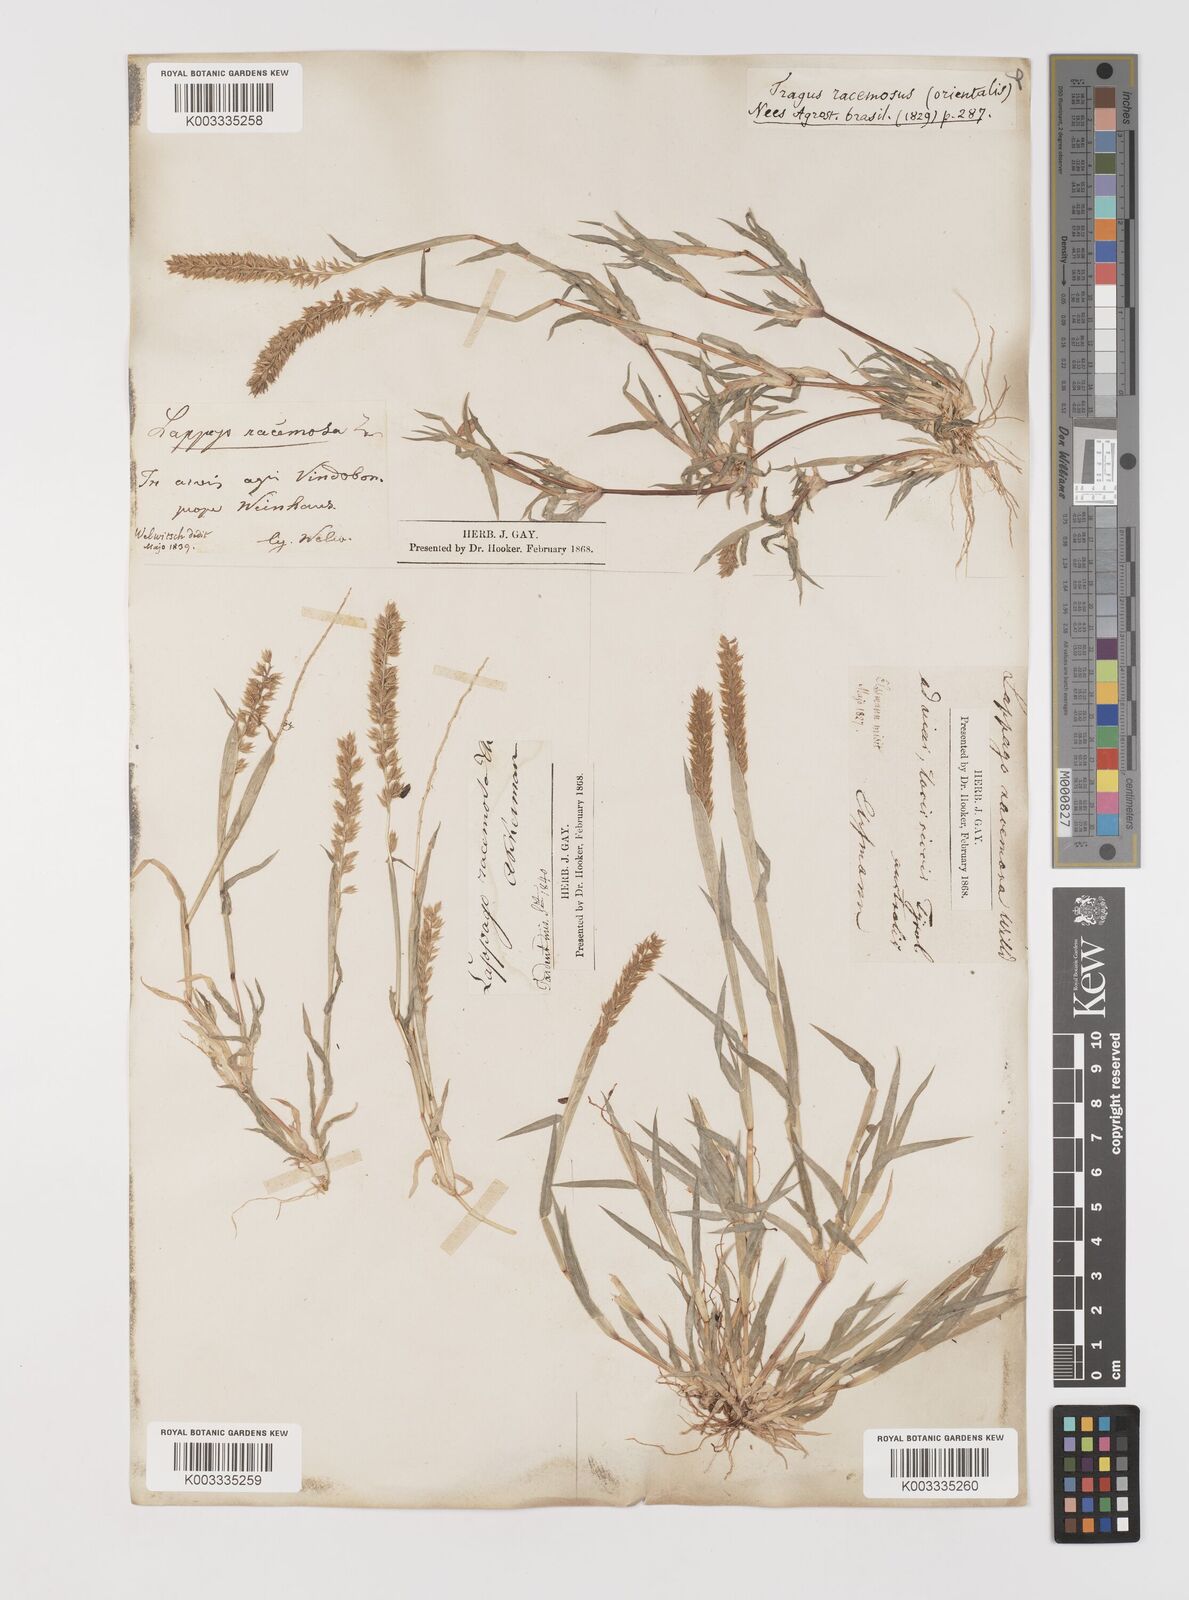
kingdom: Plantae
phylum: Tracheophyta
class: Liliopsida
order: Poales
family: Poaceae
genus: Tragus
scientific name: Tragus racemosus
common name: European bur-grass
